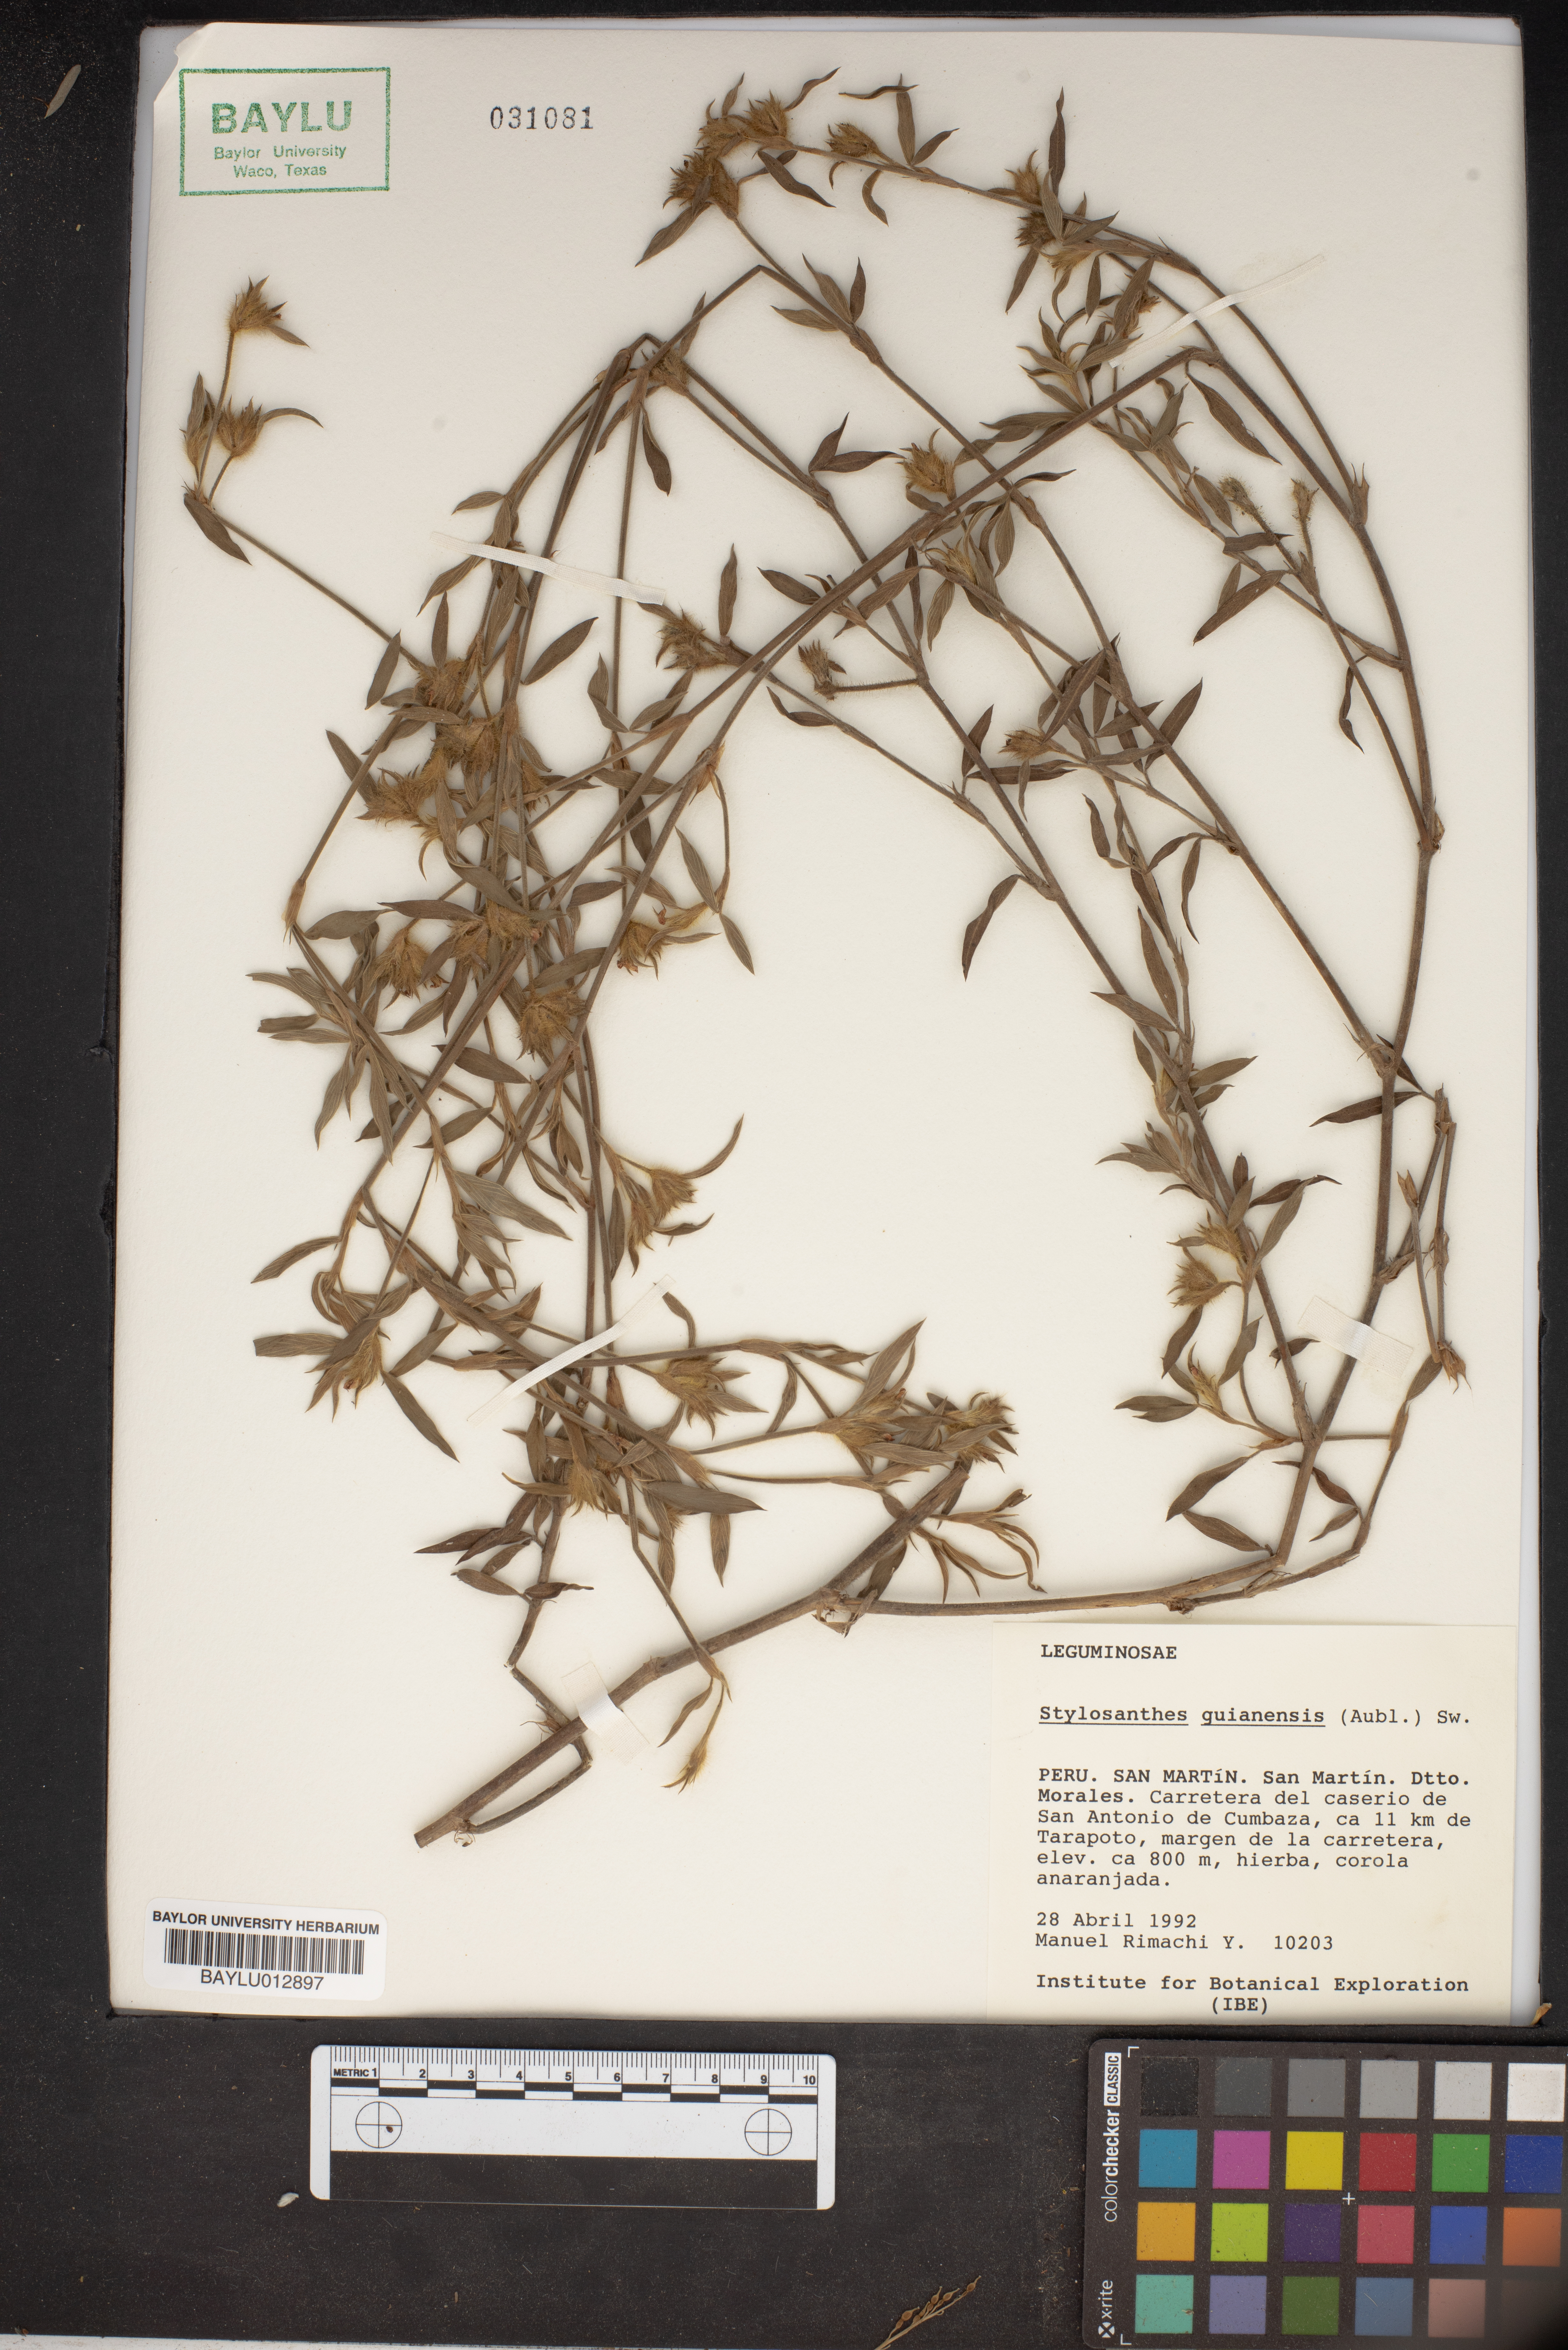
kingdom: Plantae
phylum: Tracheophyta
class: Magnoliopsida
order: Fabales
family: Fabaceae
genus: Stylosanthes
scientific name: Stylosanthes guianensis
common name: Pencil flower
